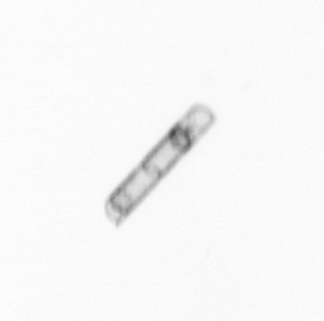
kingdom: Chromista
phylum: Ochrophyta
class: Bacillariophyceae
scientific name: Bacillariophyceae
